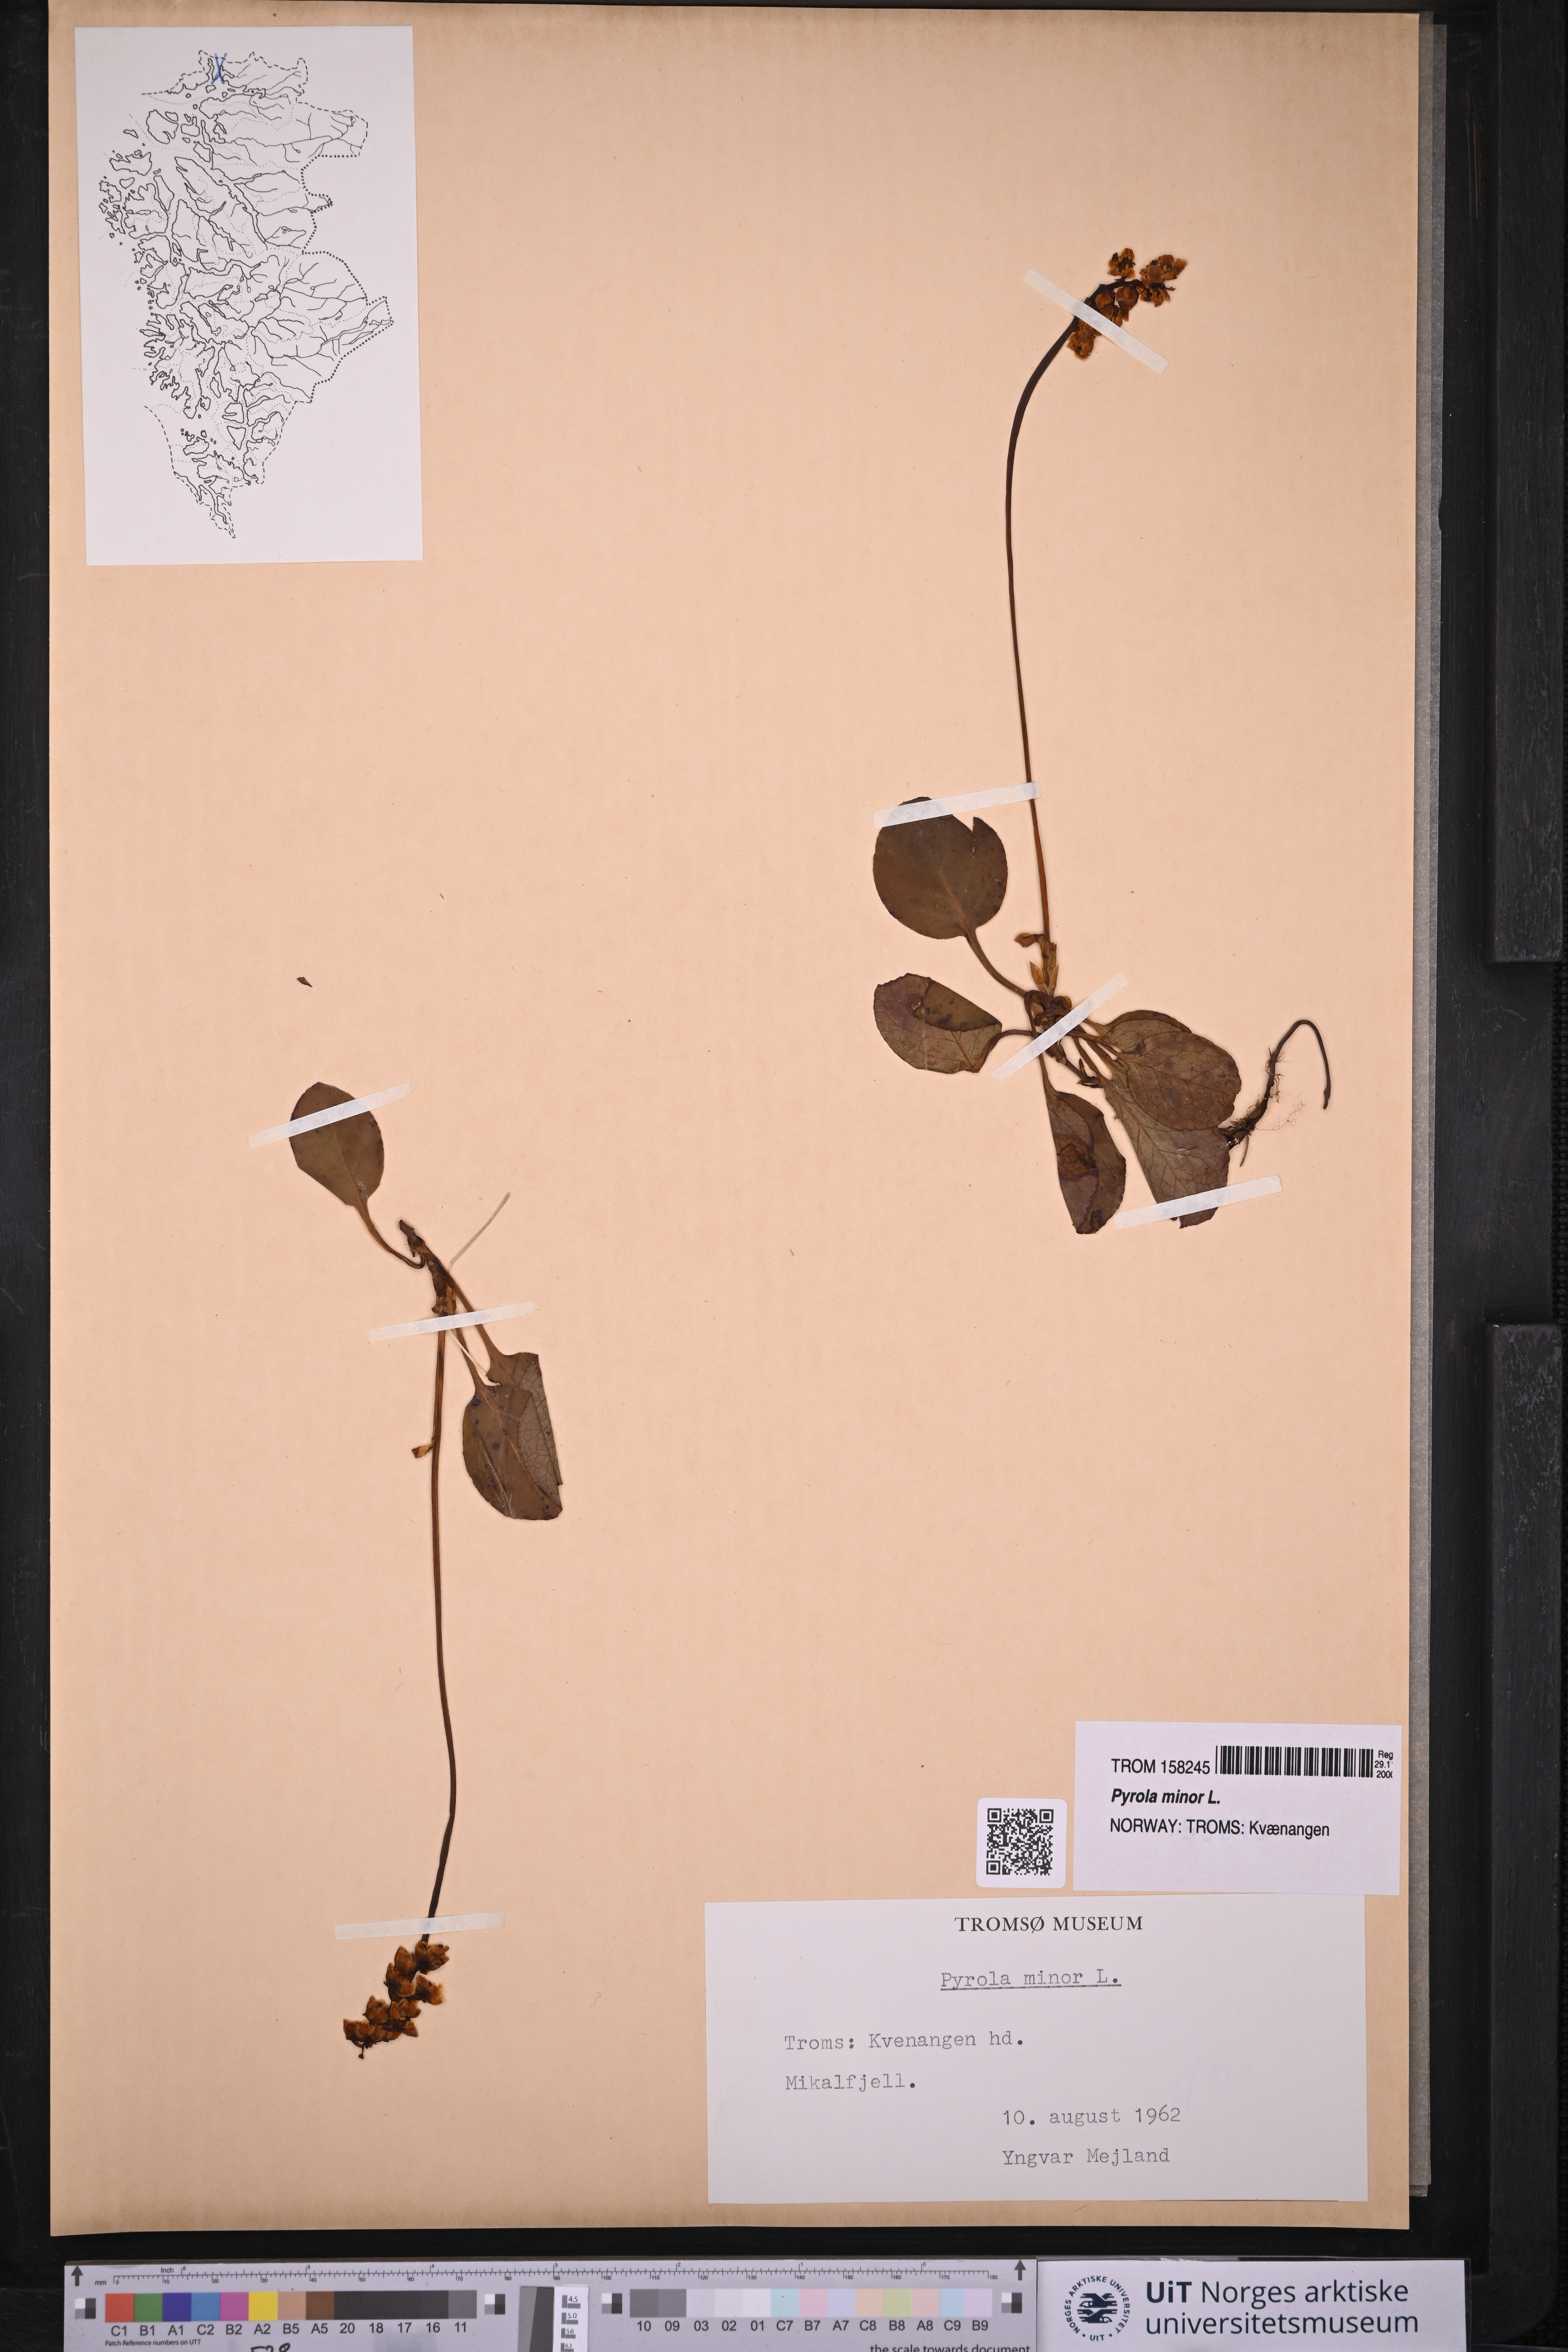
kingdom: Plantae
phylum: Tracheophyta
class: Magnoliopsida
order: Ericales
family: Ericaceae
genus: Pyrola
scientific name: Pyrola minor
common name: Common wintergreen
